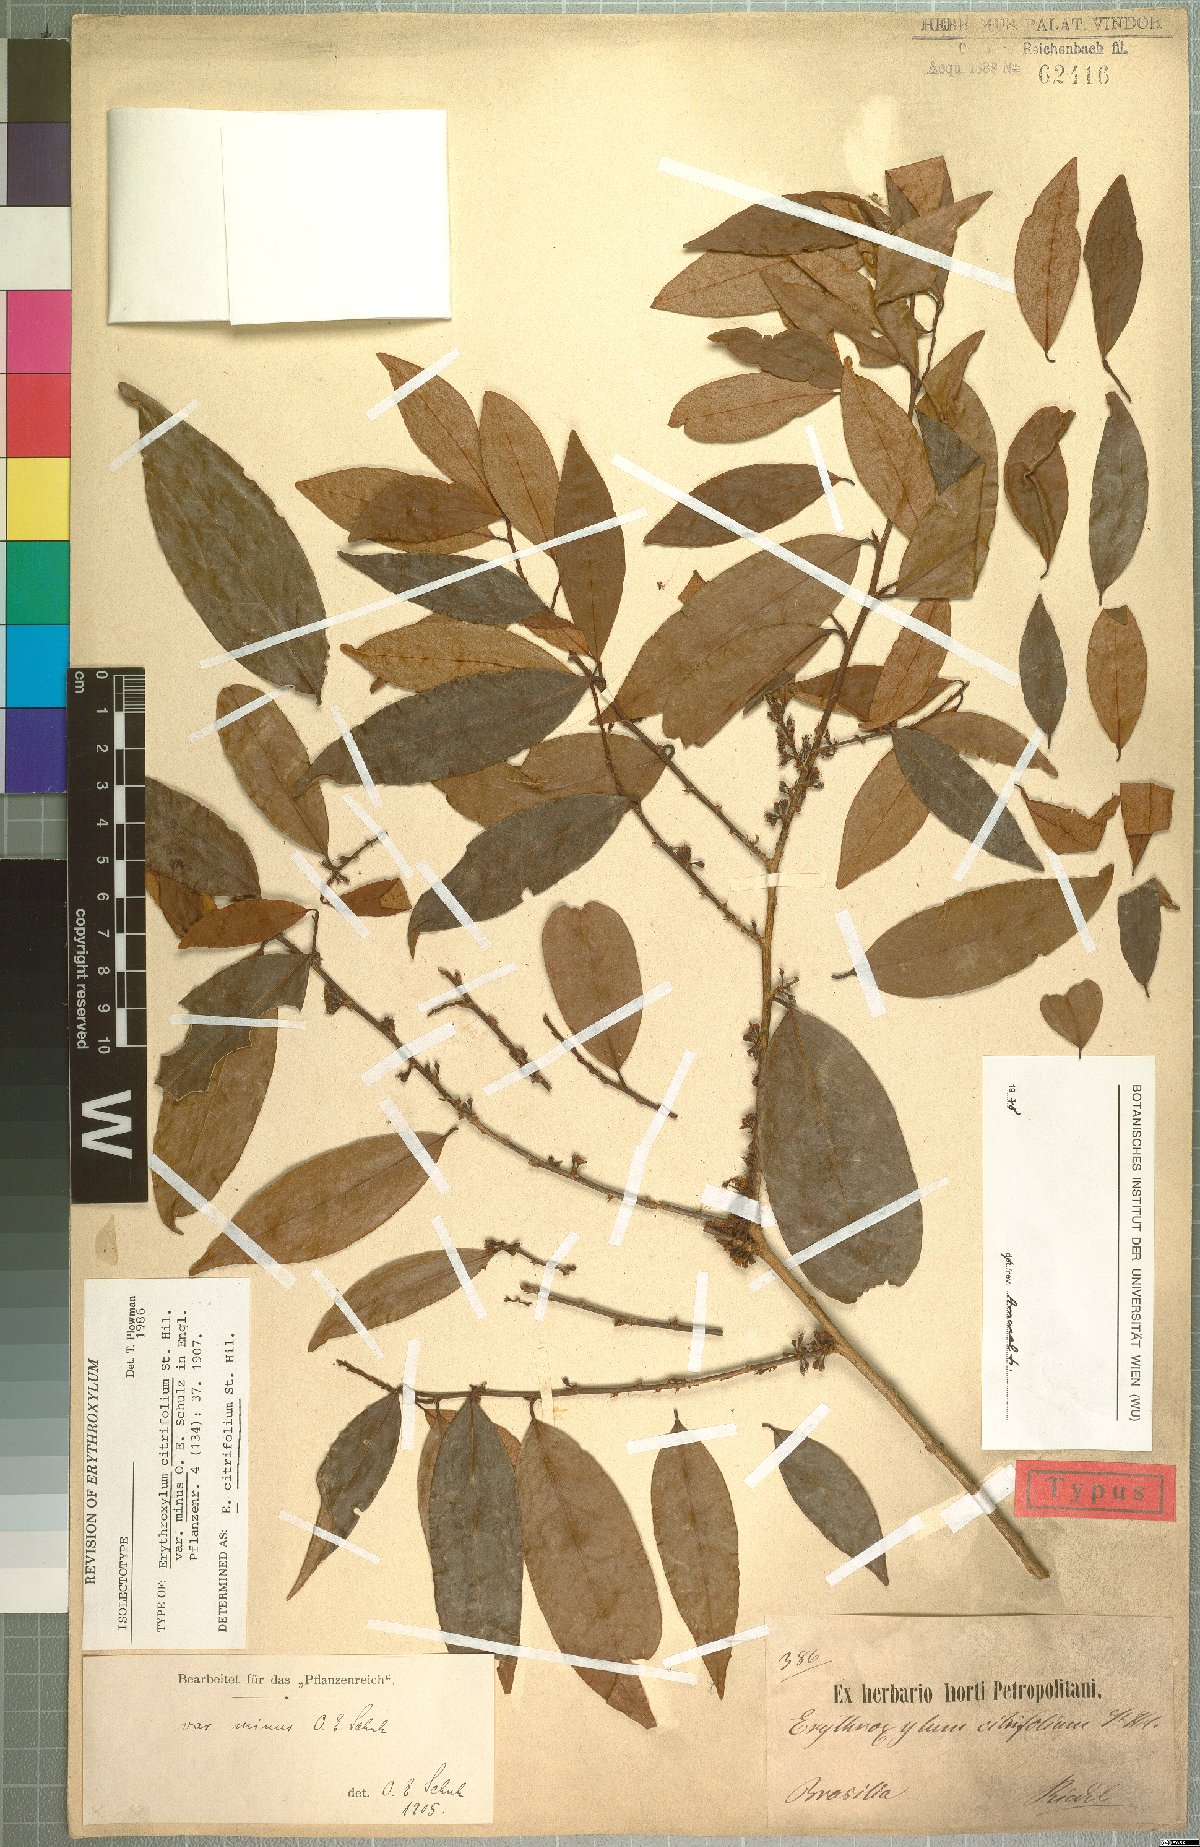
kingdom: Plantae
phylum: Tracheophyta
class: Magnoliopsida
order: Malpighiales
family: Erythroxylaceae
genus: Erythroxylum
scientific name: Erythroxylum citrifolium
